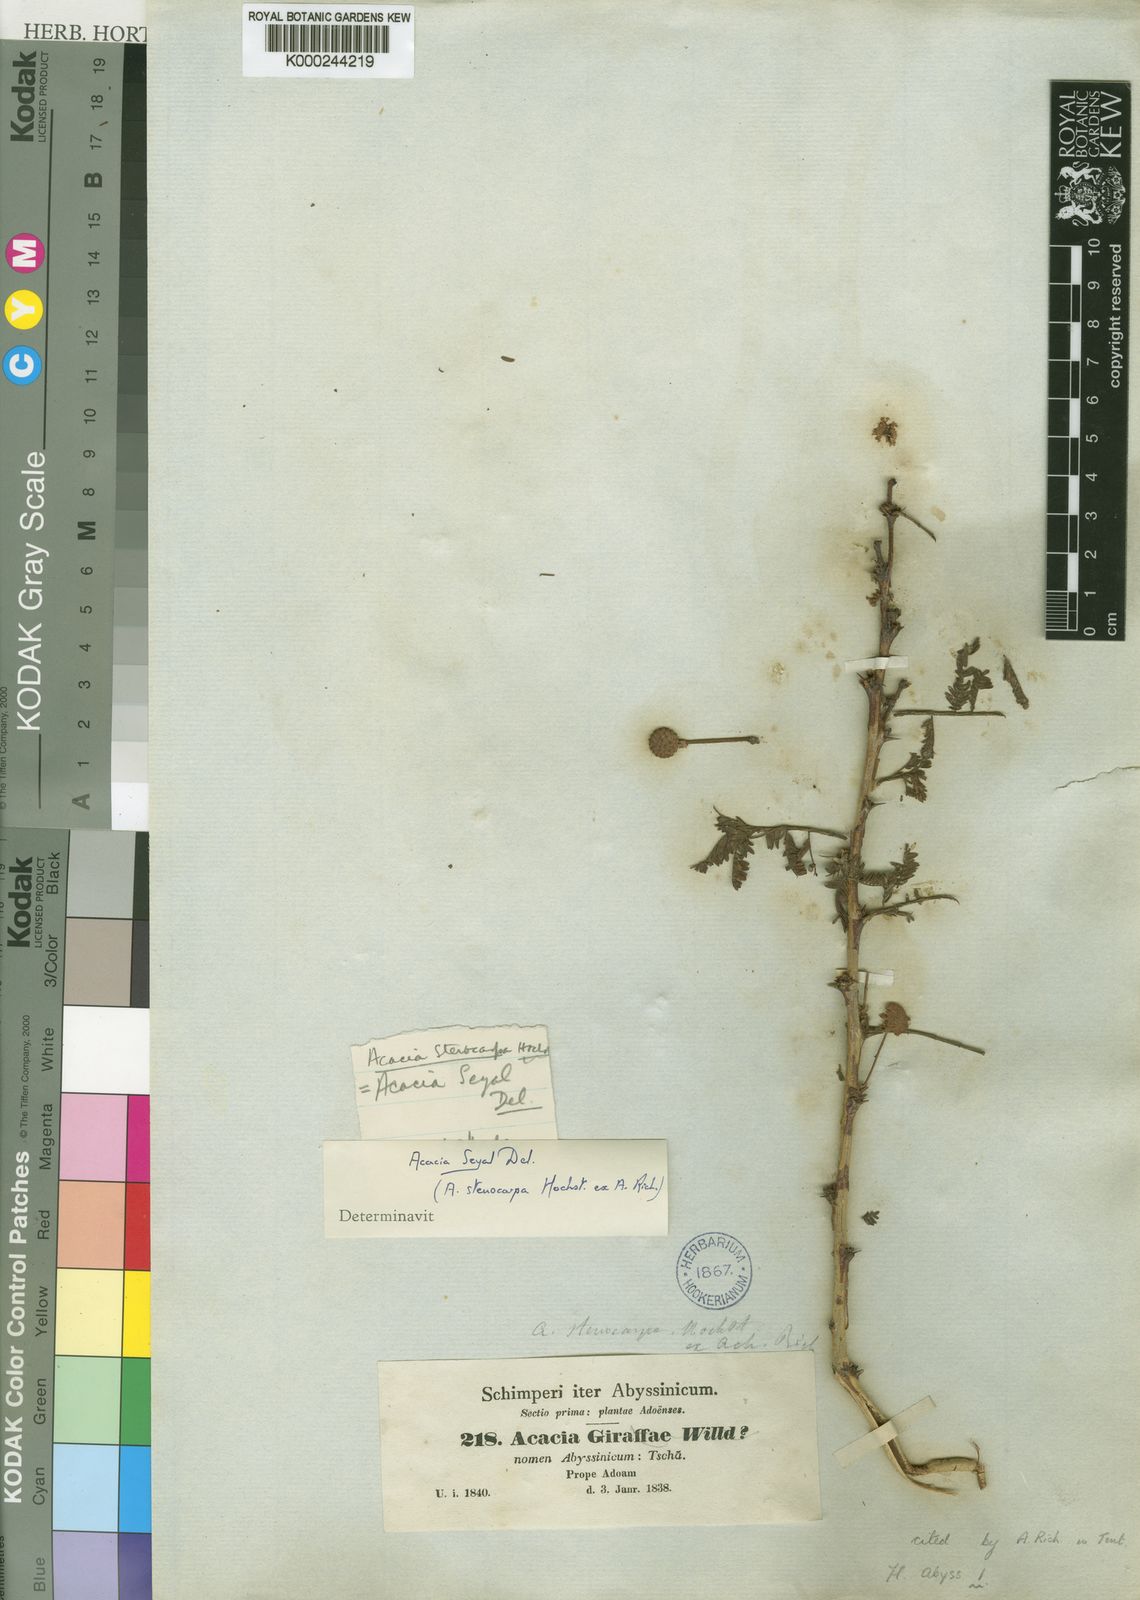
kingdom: Plantae
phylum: Tracheophyta
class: Magnoliopsida
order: Fabales
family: Fabaceae
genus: Vachellia
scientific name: Vachellia seyal
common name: Thirtythorn
